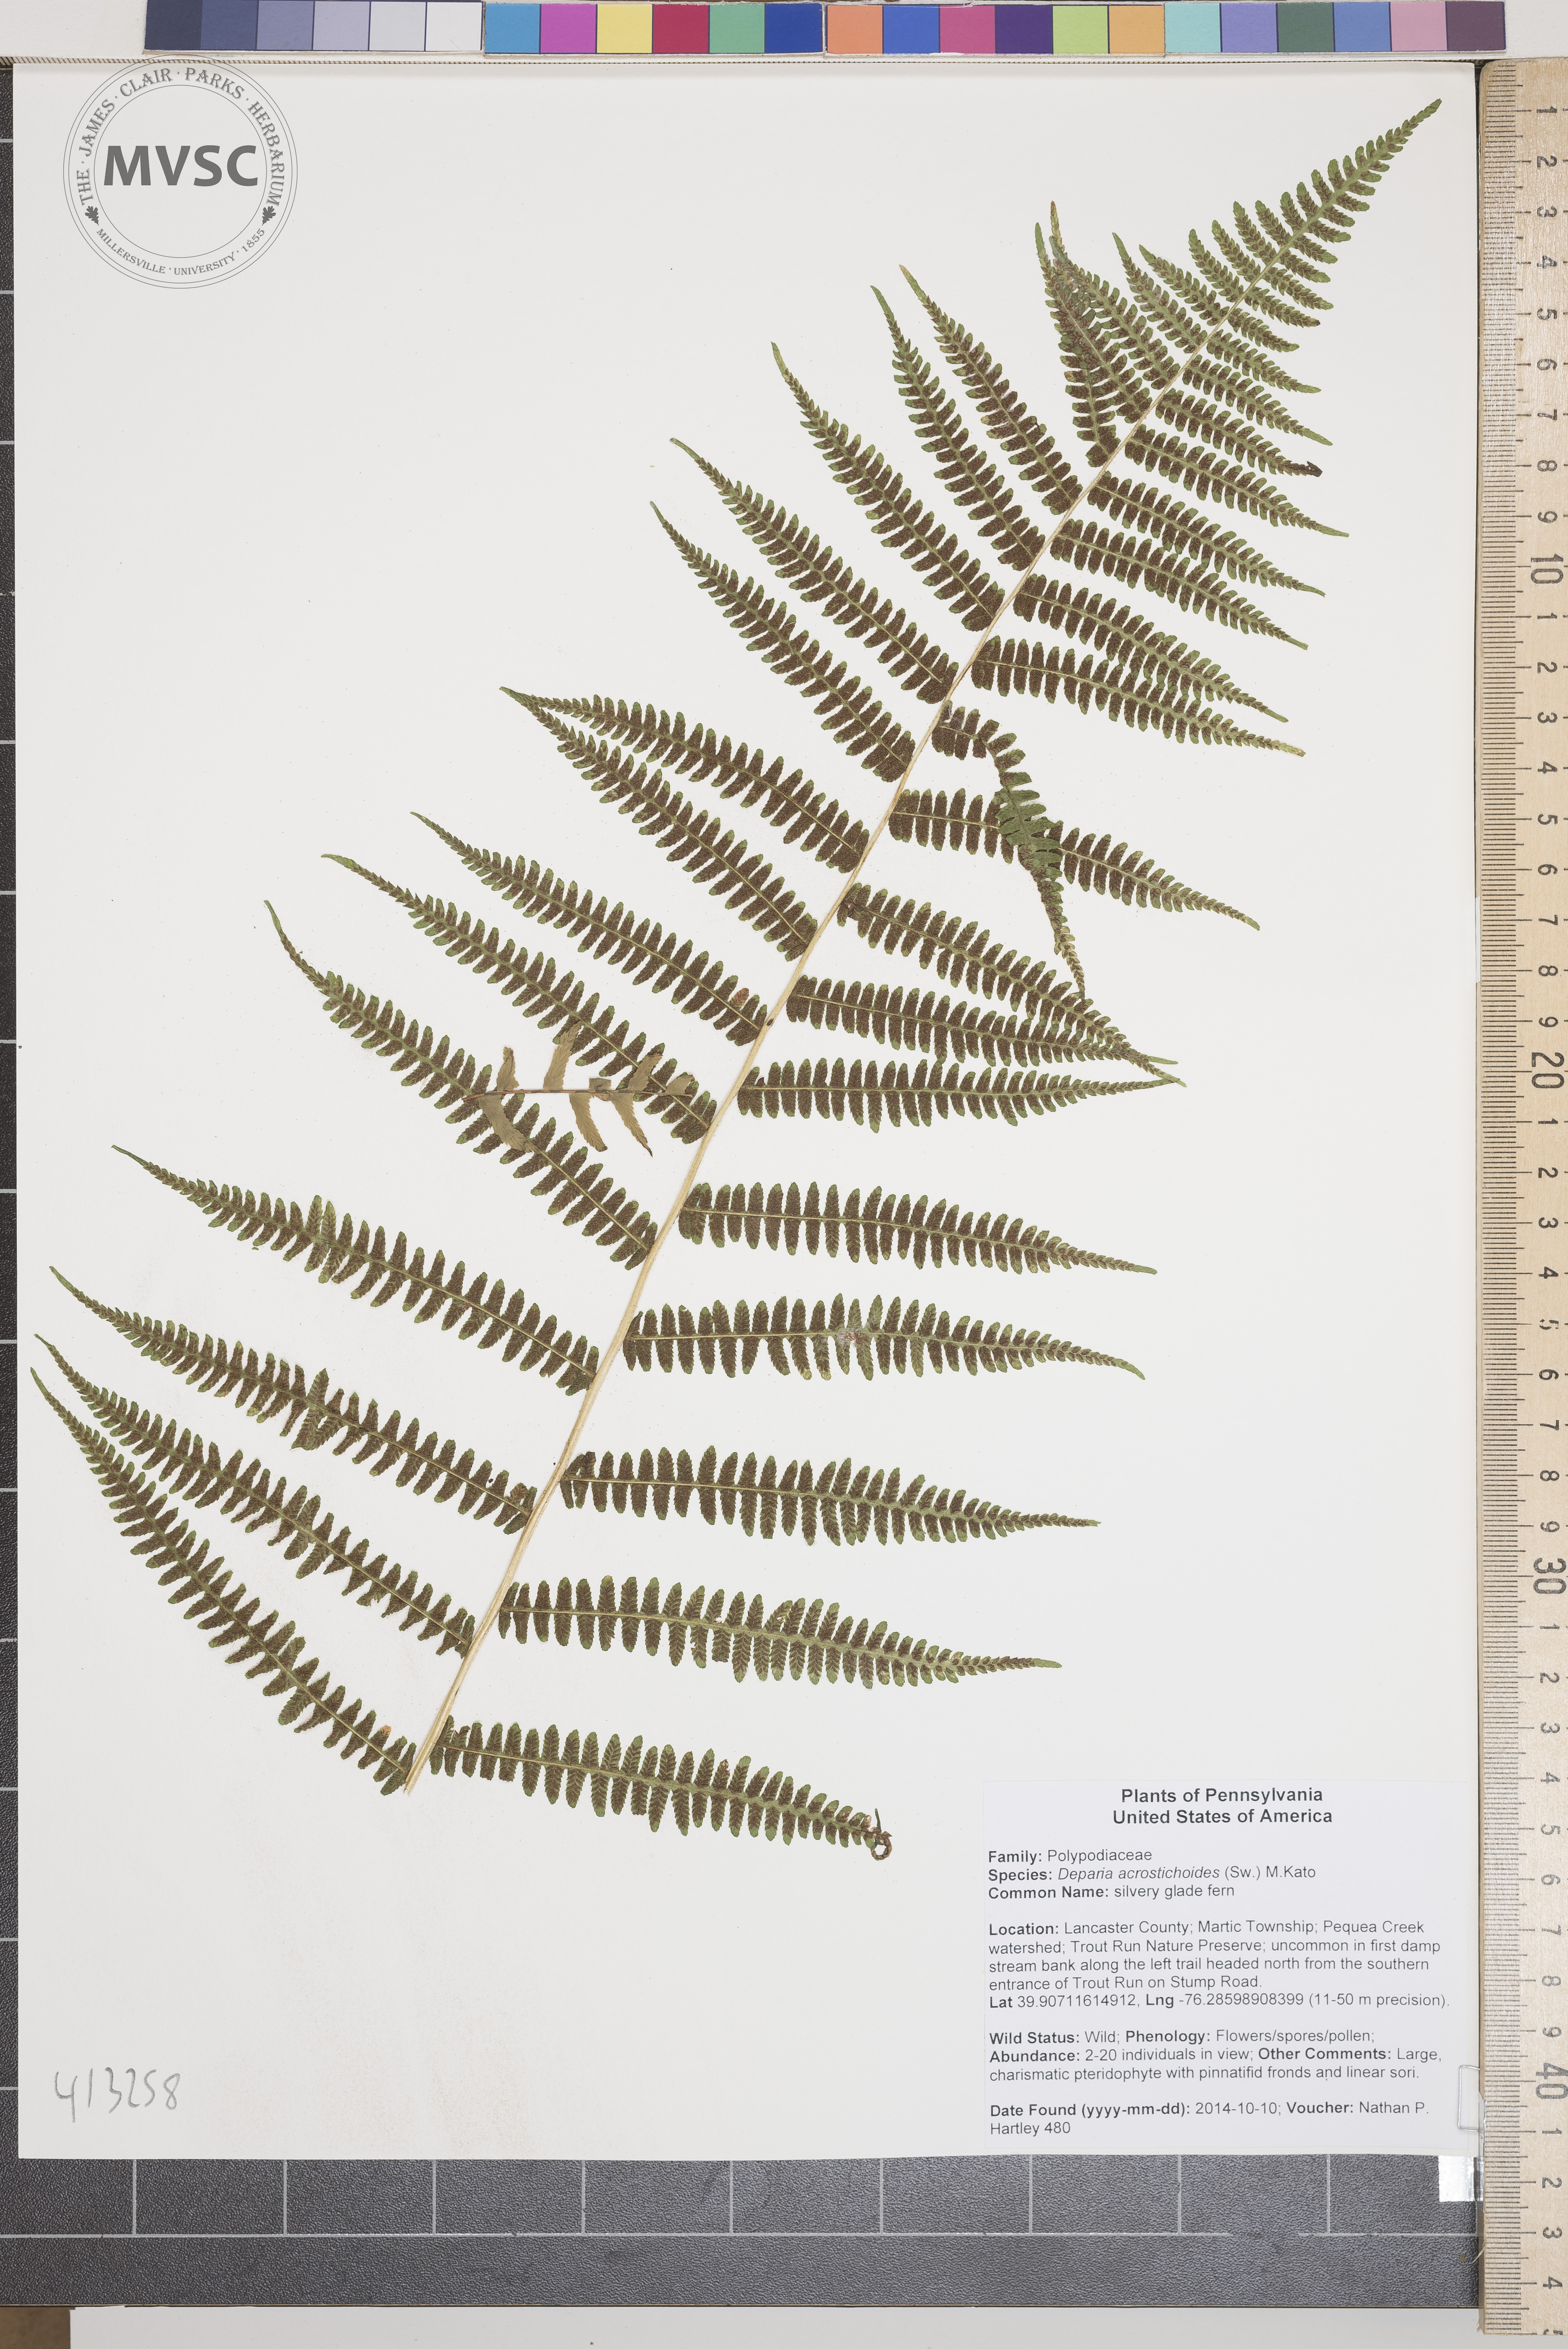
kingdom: Plantae
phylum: Tracheophyta
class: Polypodiopsida
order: Polypodiales
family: Athyriaceae
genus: Deparia
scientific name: Deparia acrostichoides
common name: silvery glade fern
